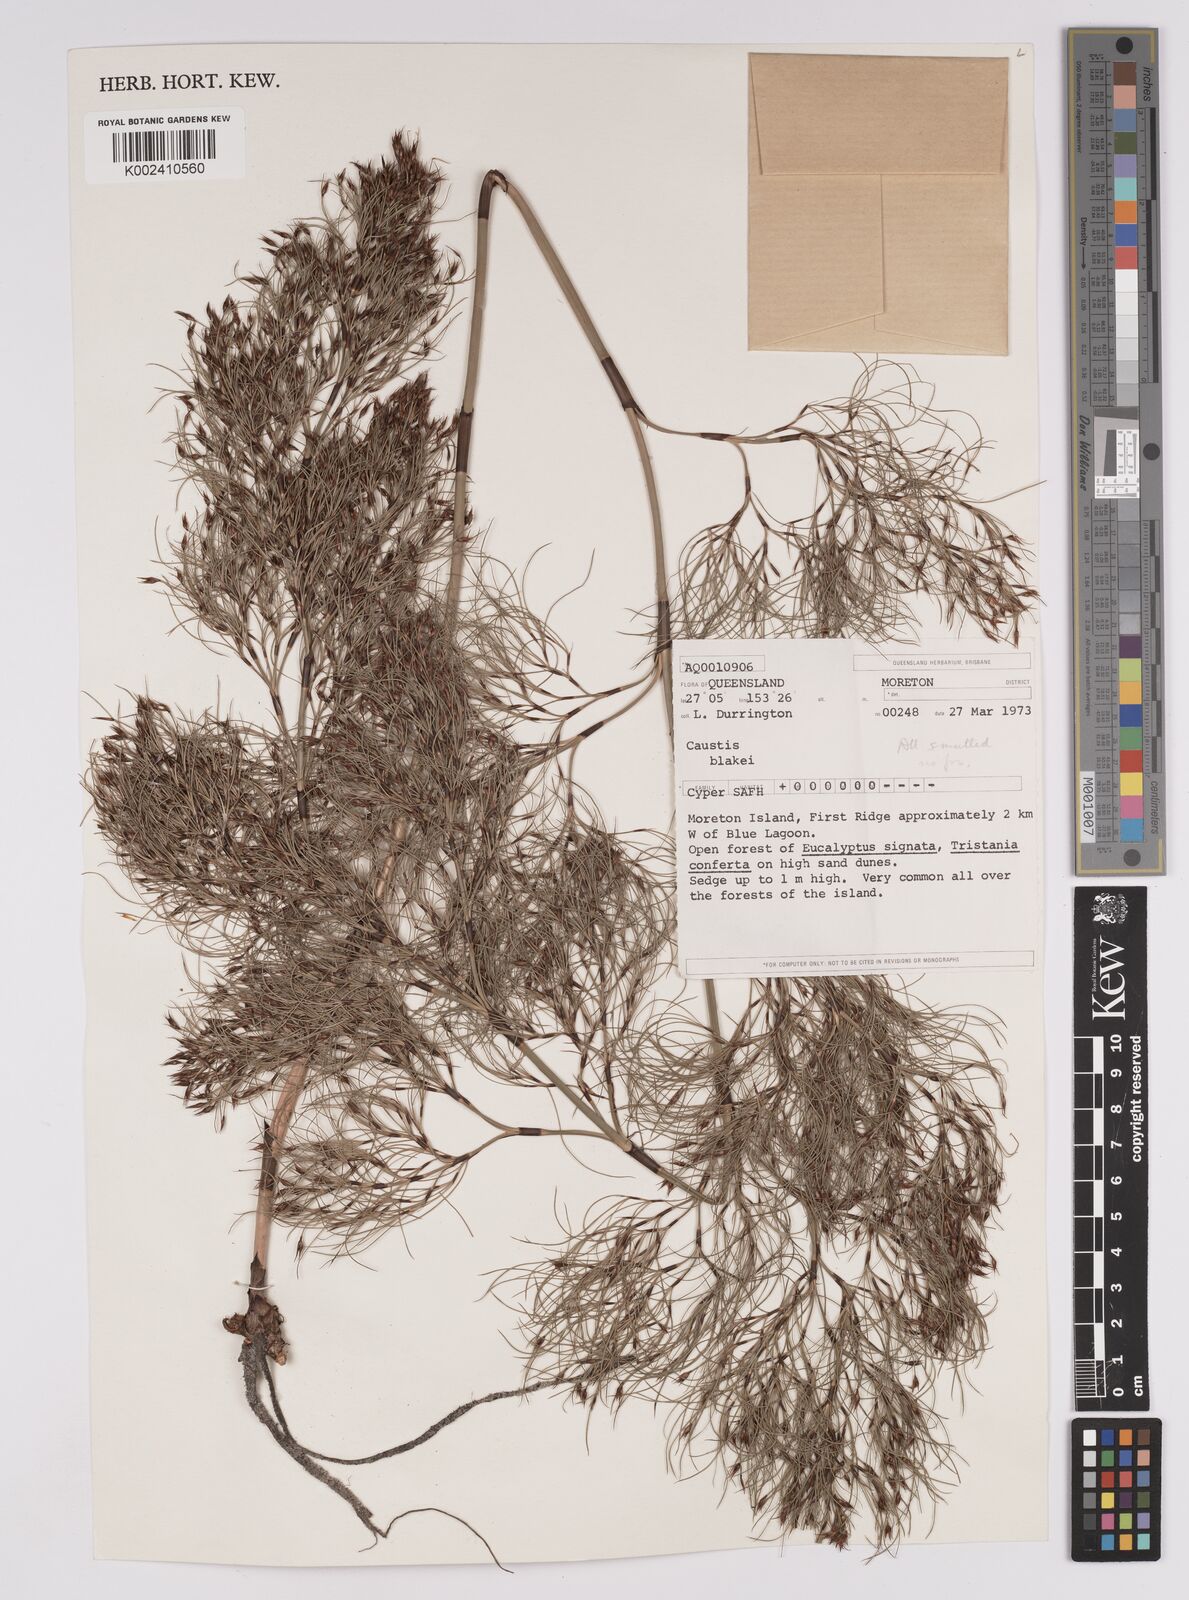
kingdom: Plantae
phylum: Tracheophyta
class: Liliopsida
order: Poales
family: Cyperaceae
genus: Caustis
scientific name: Caustis blakei
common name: Foxtail-fern
